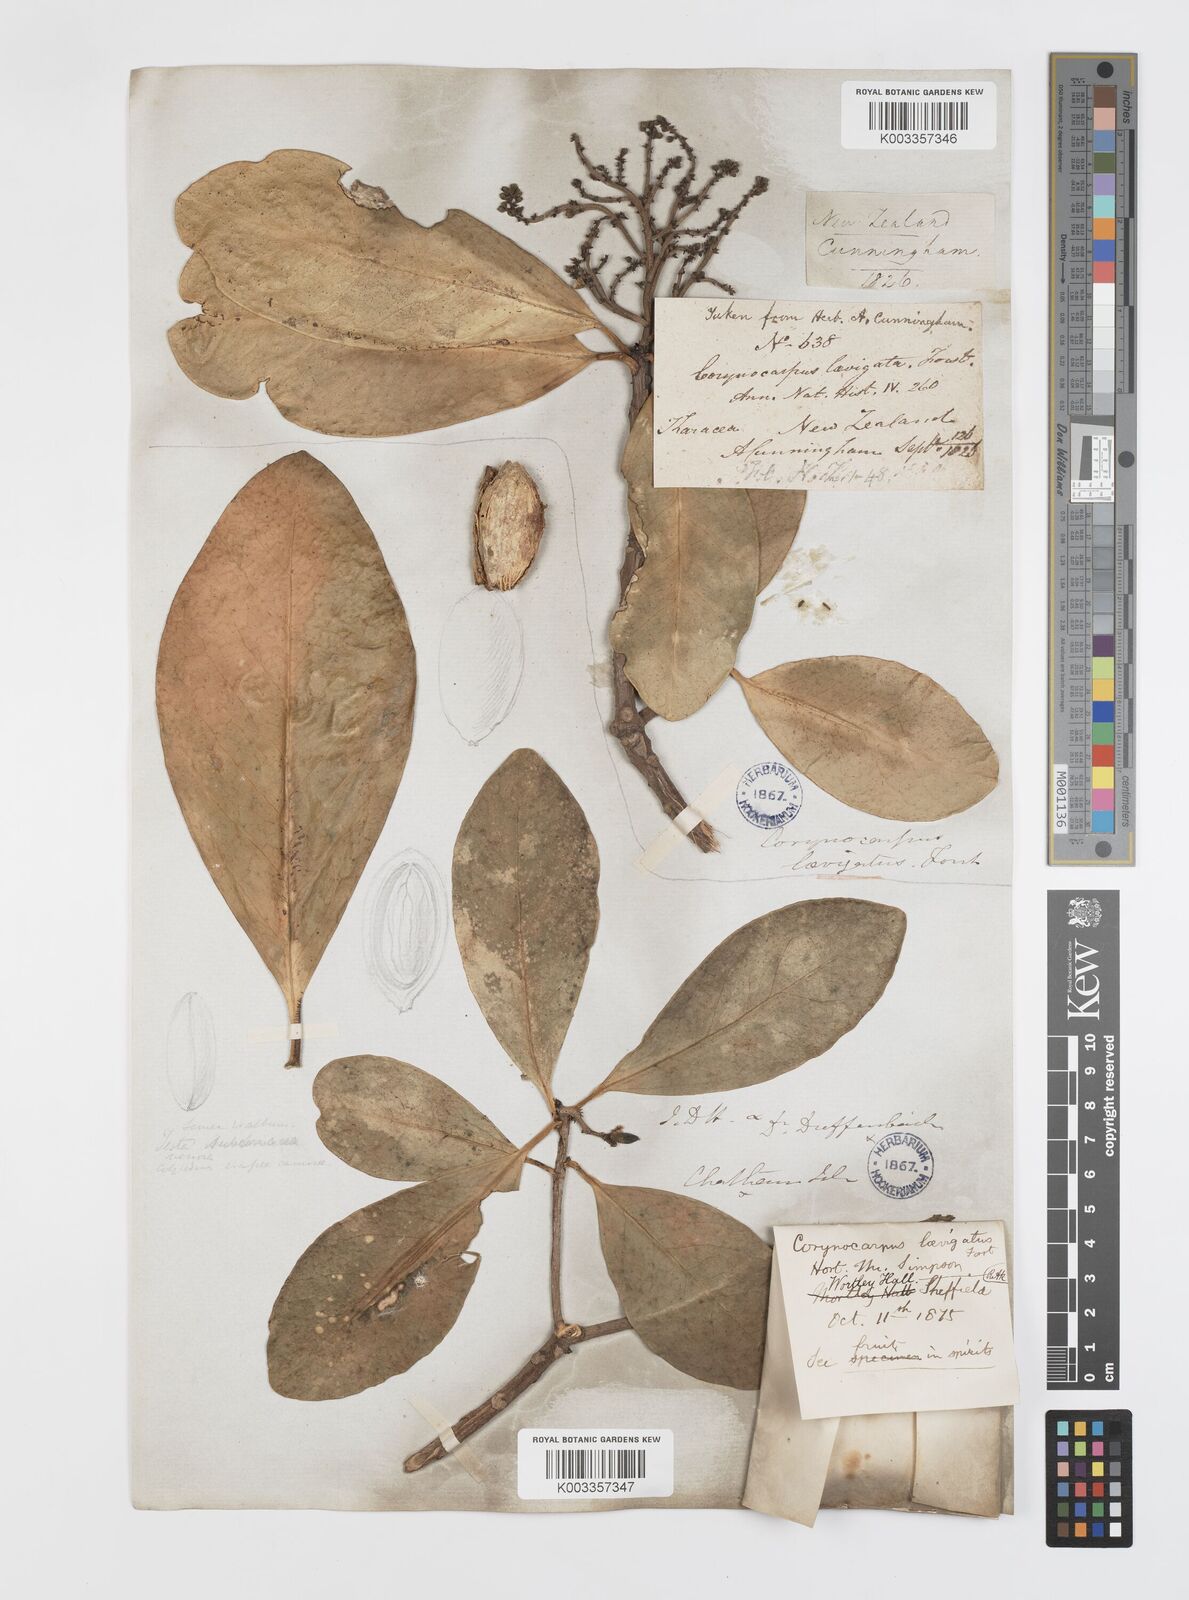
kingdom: Plantae
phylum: Tracheophyta
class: Magnoliopsida
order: Cucurbitales
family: Corynocarpaceae
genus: Corynocarpus
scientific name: Corynocarpus laevigatus
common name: New zealand laurel
